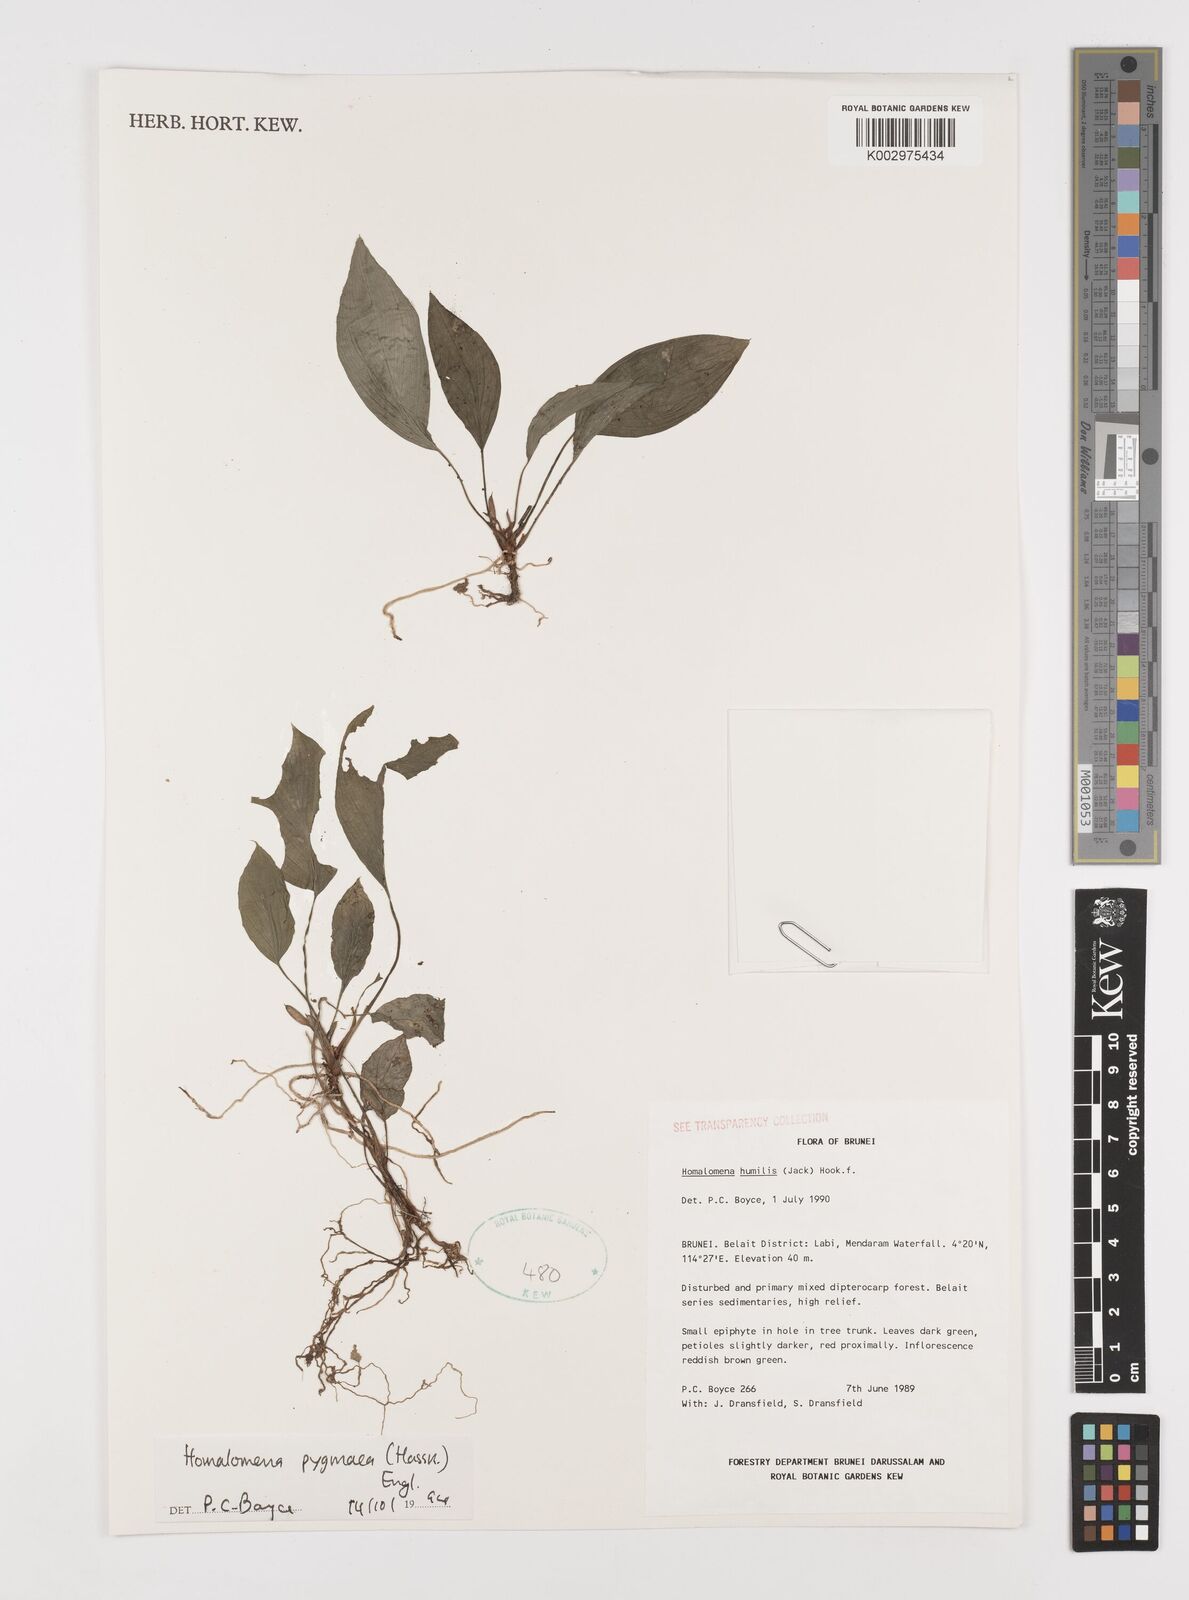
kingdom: Plantae
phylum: Tracheophyta
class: Liliopsida
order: Alismatales
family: Araceae
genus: Homalomena
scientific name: Homalomena humilis
